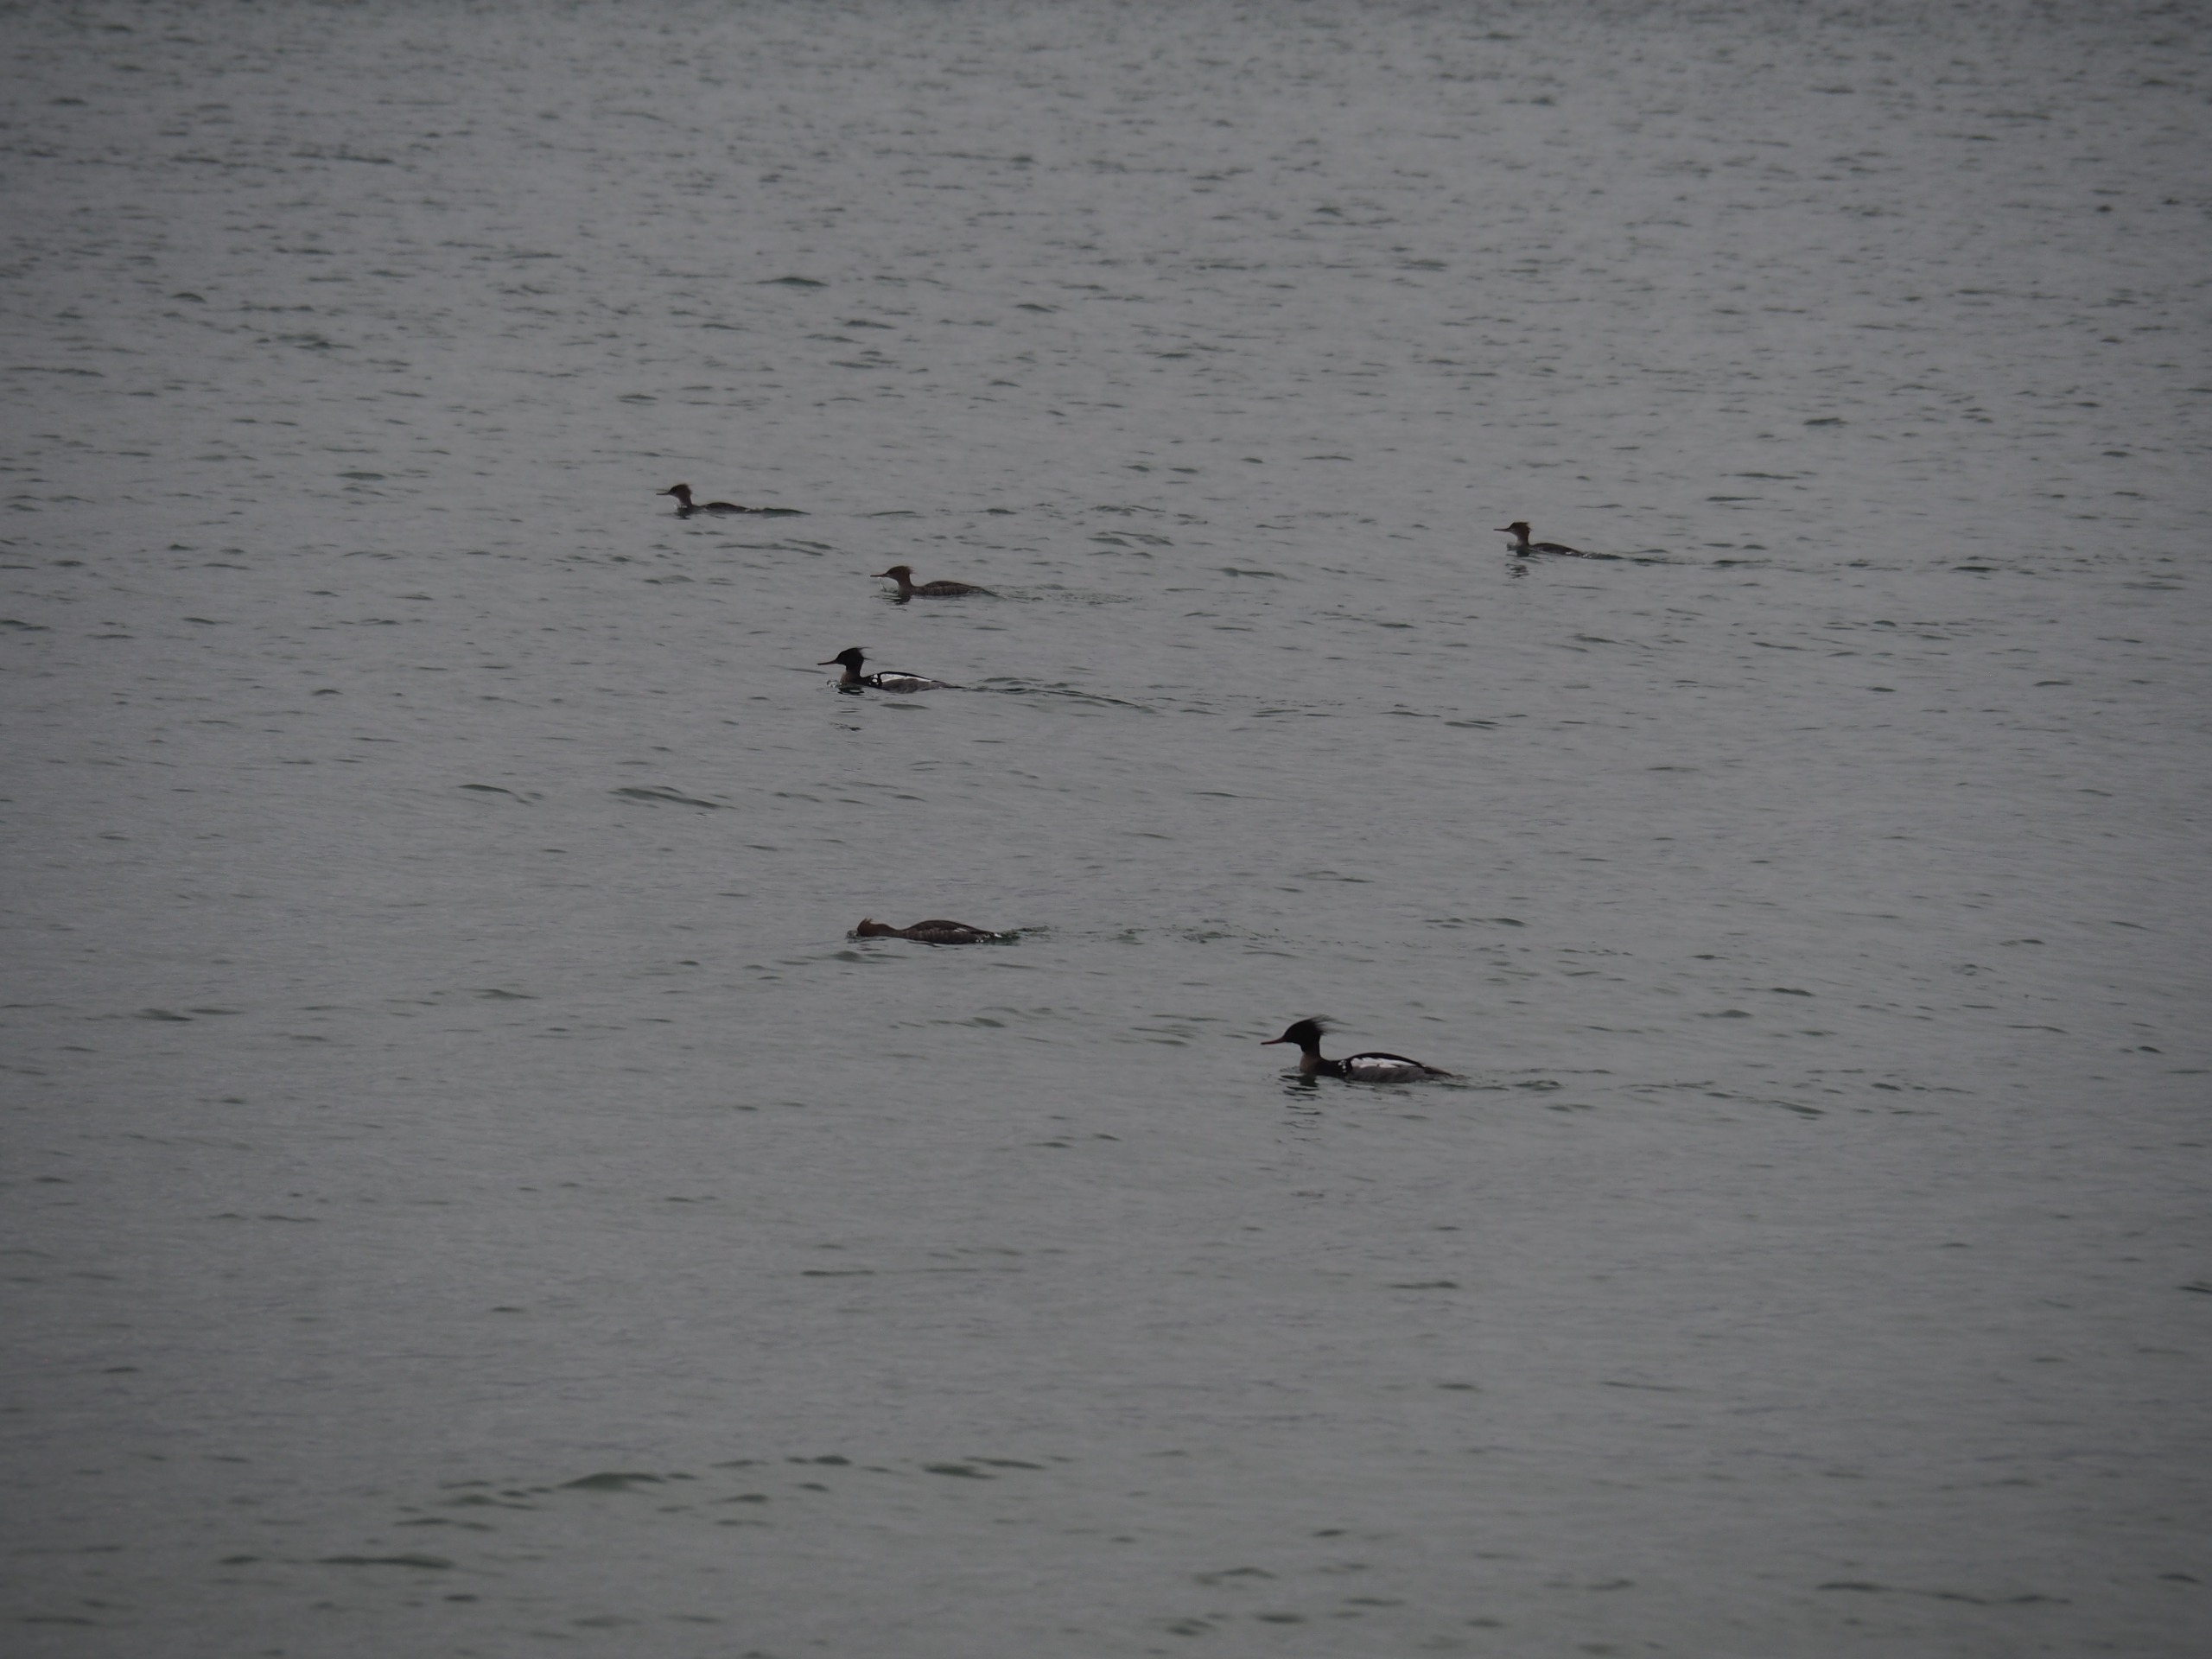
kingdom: Animalia
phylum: Chordata
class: Aves
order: Anseriformes
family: Anatidae
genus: Mergus
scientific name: Mergus serrator
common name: Toppet skallesluger
